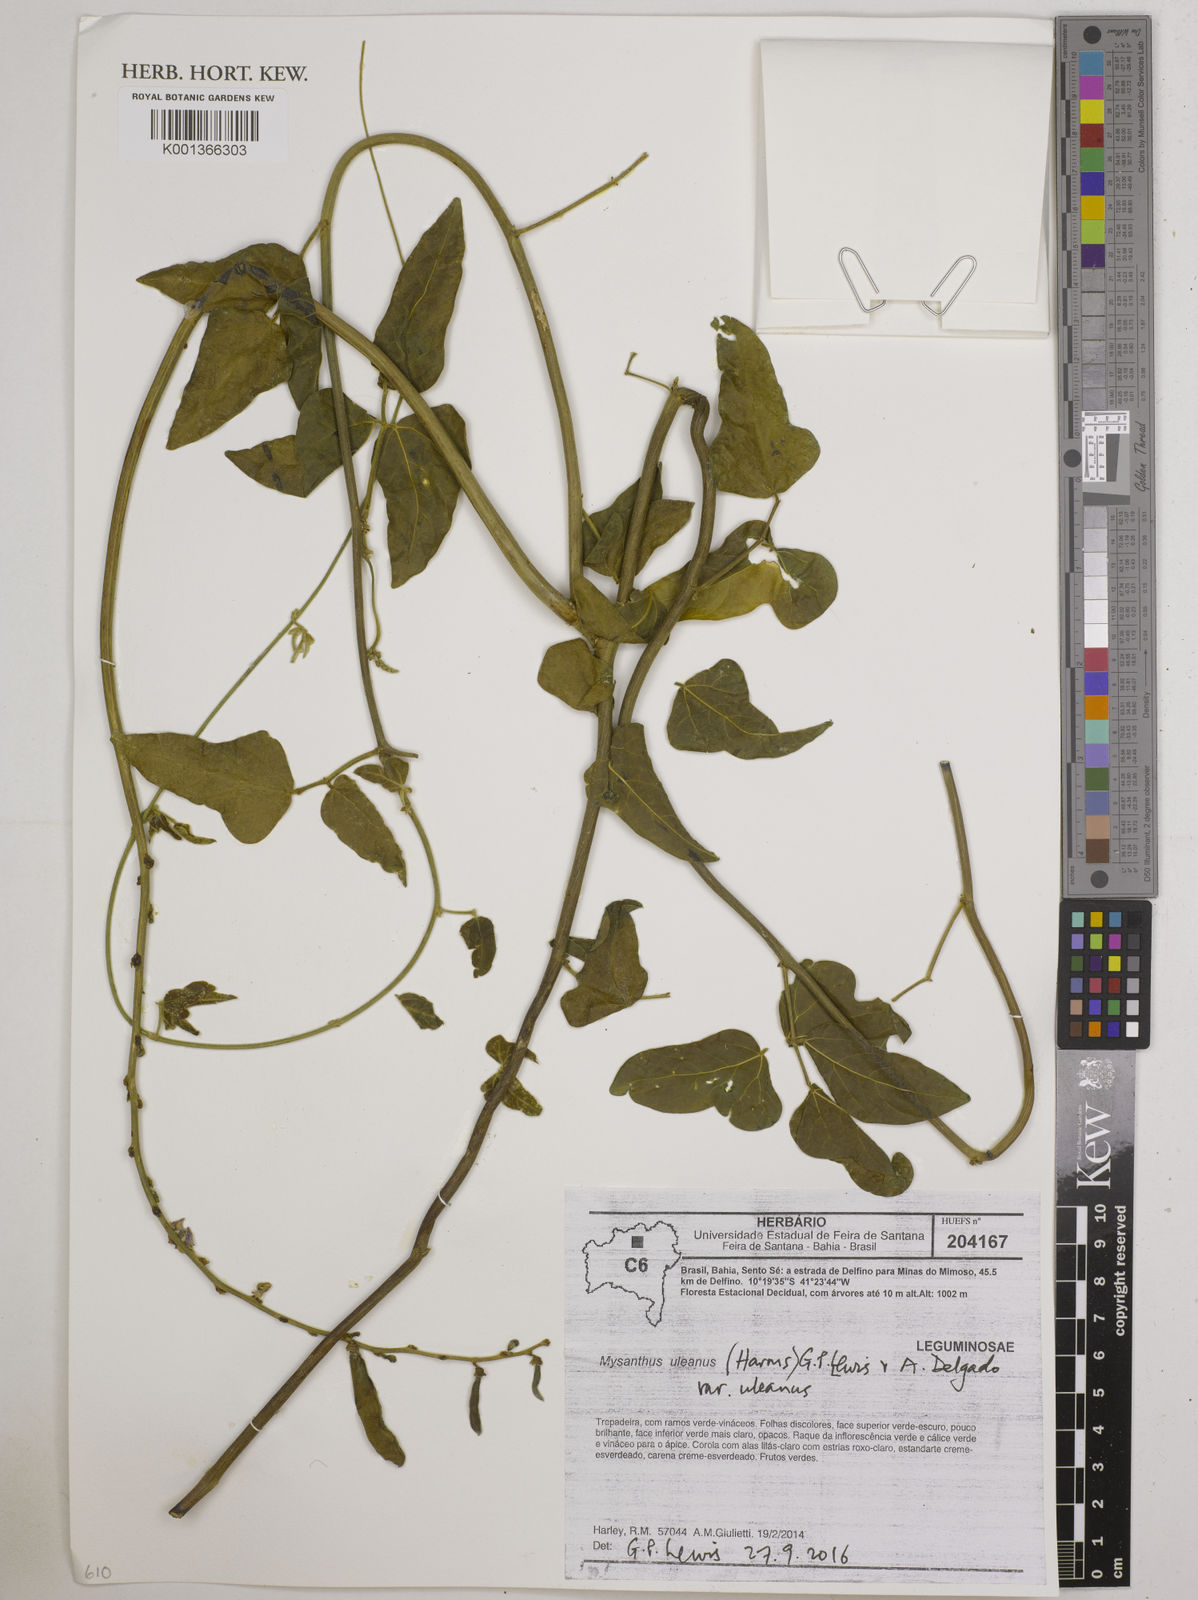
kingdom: Plantae
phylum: Tracheophyta
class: Magnoliopsida
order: Fabales
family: Fabaceae
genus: Mysanthus
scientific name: Mysanthus uleanus
